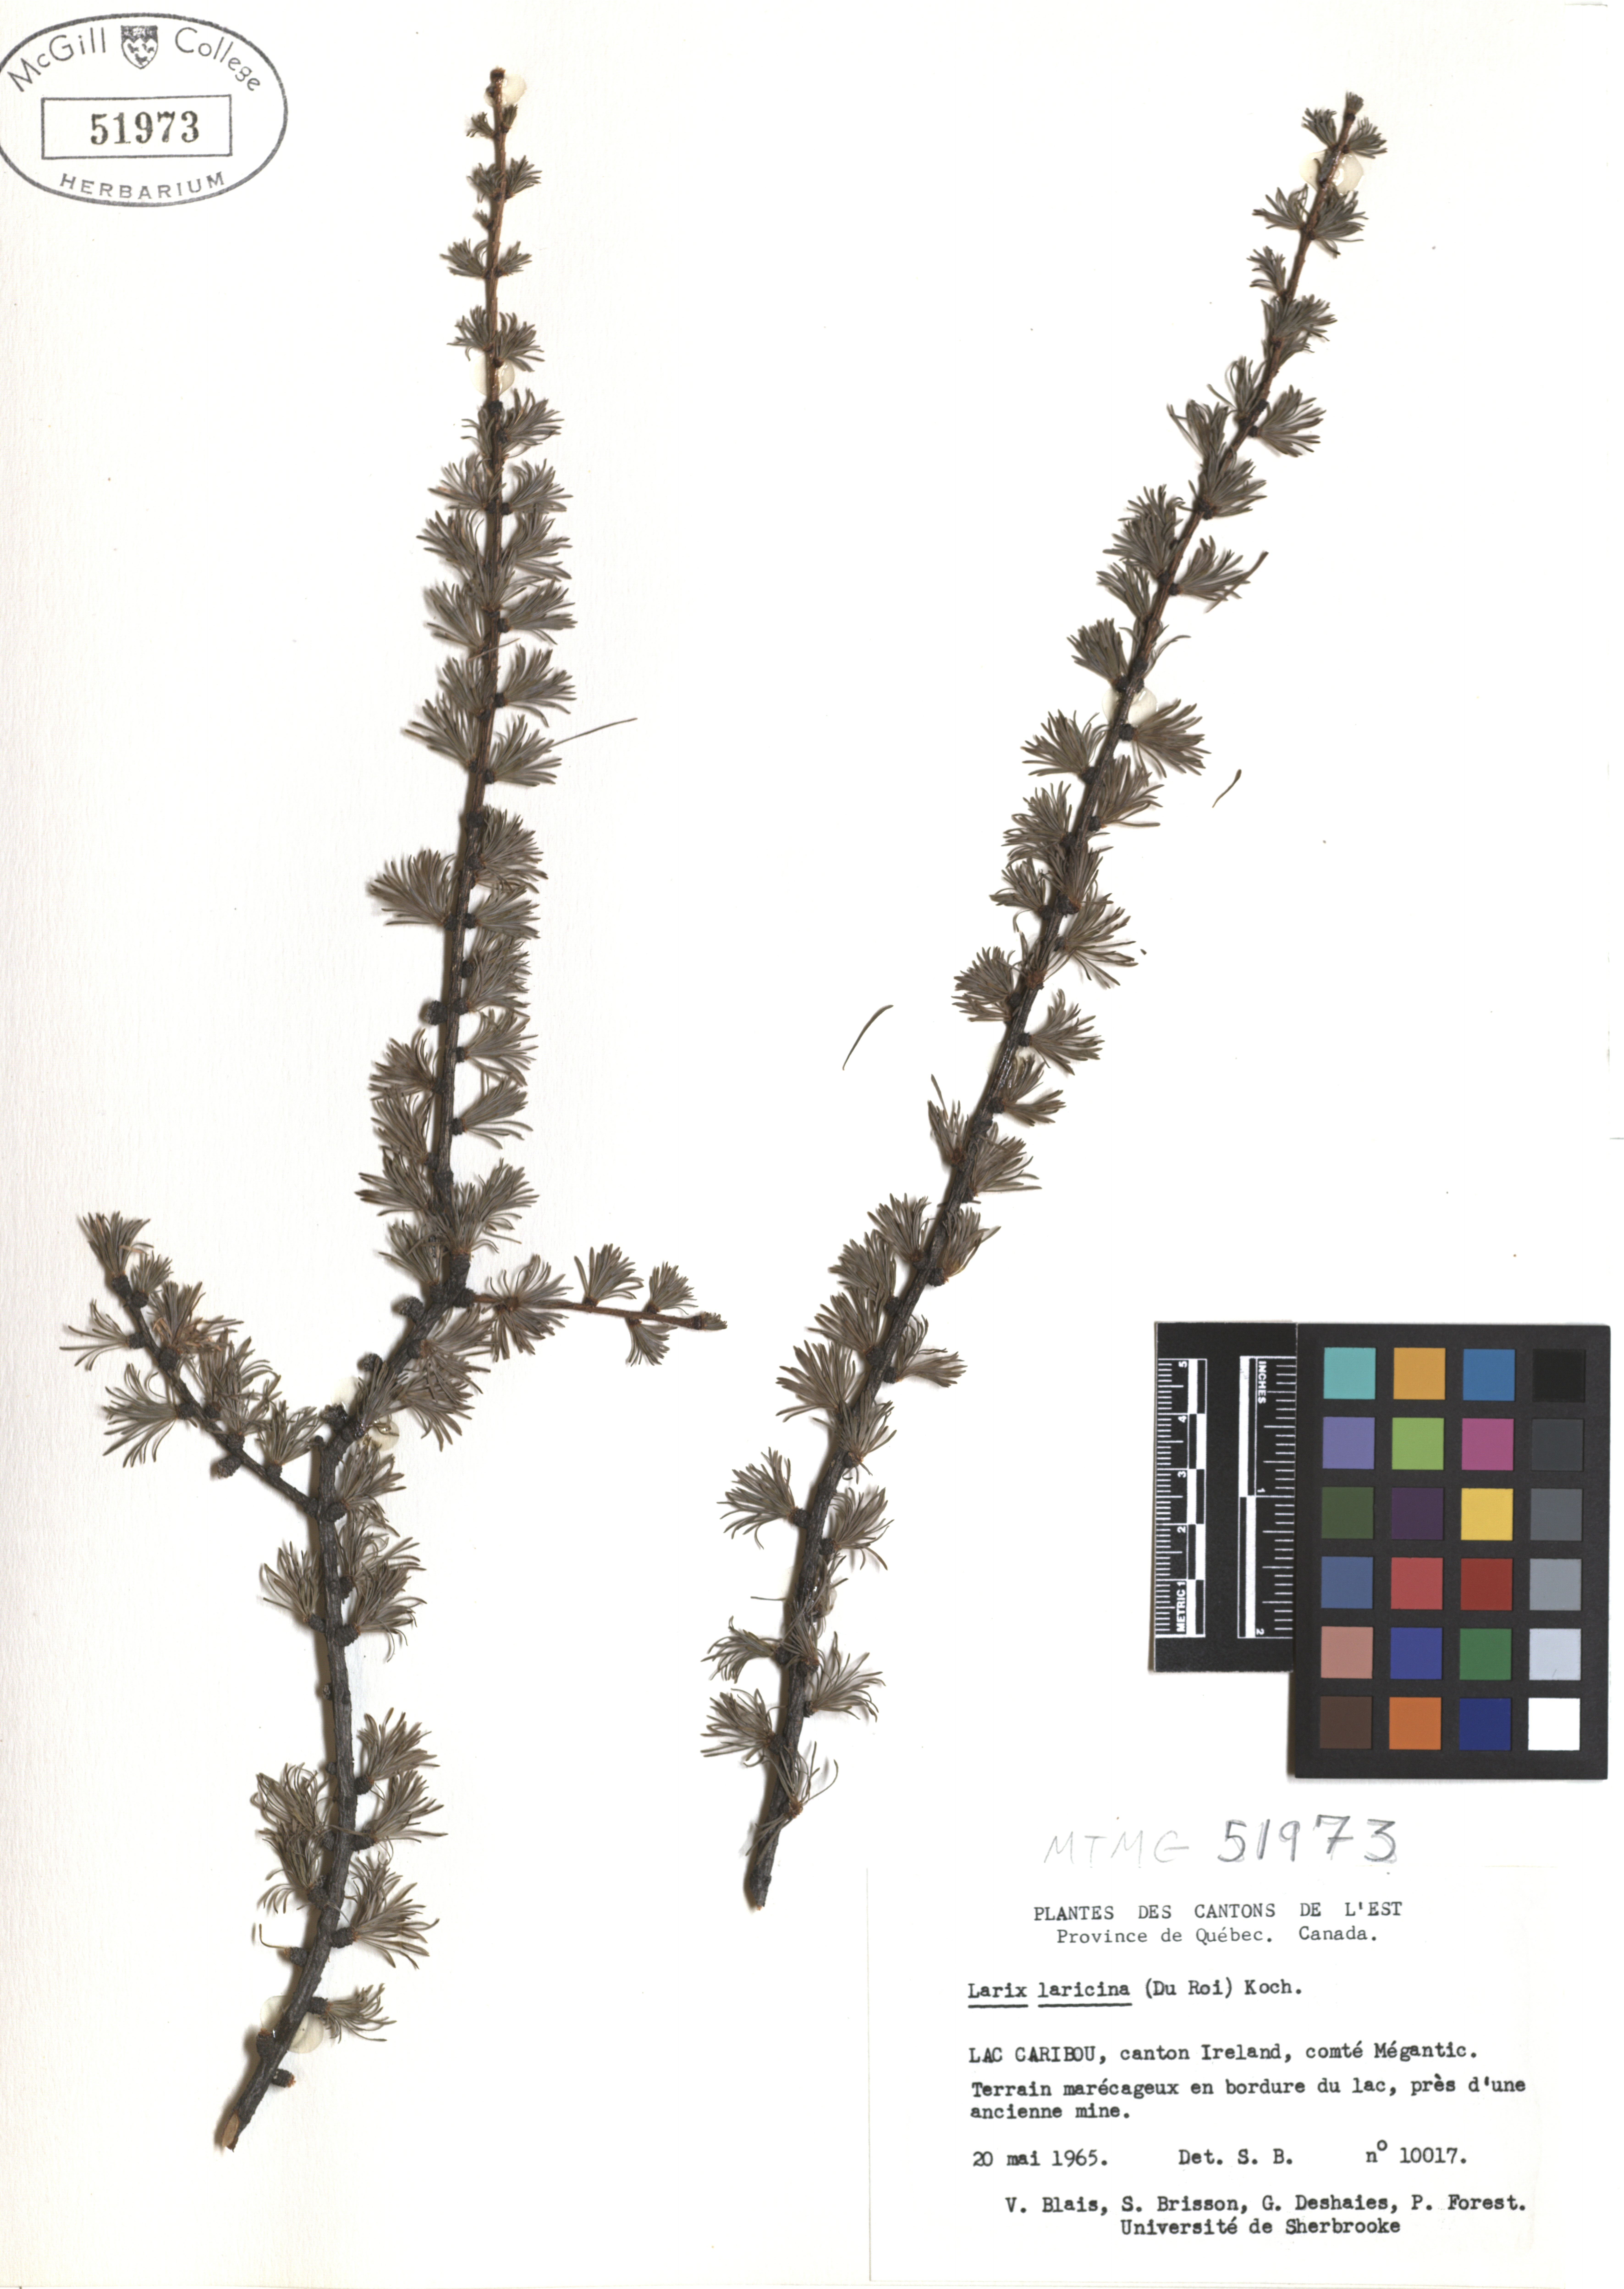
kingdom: Plantae
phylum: Tracheophyta
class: Pinopsida
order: Pinales
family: Pinaceae
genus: Larix
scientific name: Larix laricina
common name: American larch
